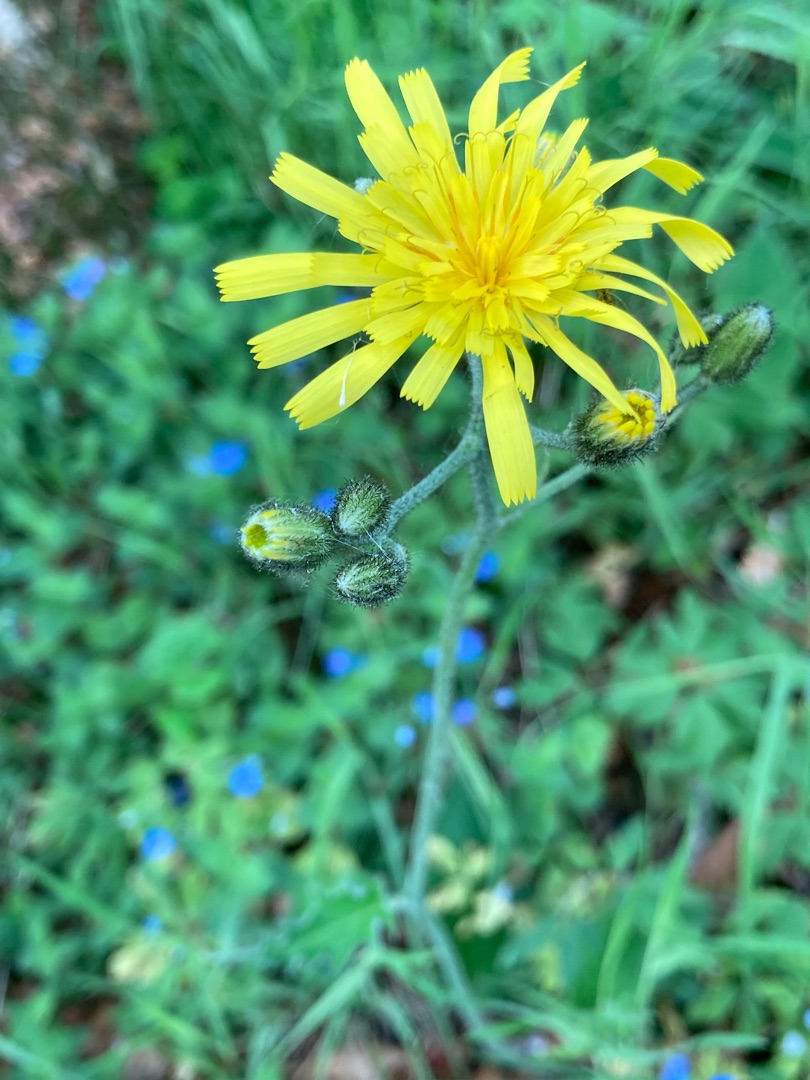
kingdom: Plantae
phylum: Tracheophyta
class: Magnoliopsida
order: Asterales
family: Asteraceae
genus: Hieracium
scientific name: Hieracium
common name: Høgeurt (Hieracium-slægten)
